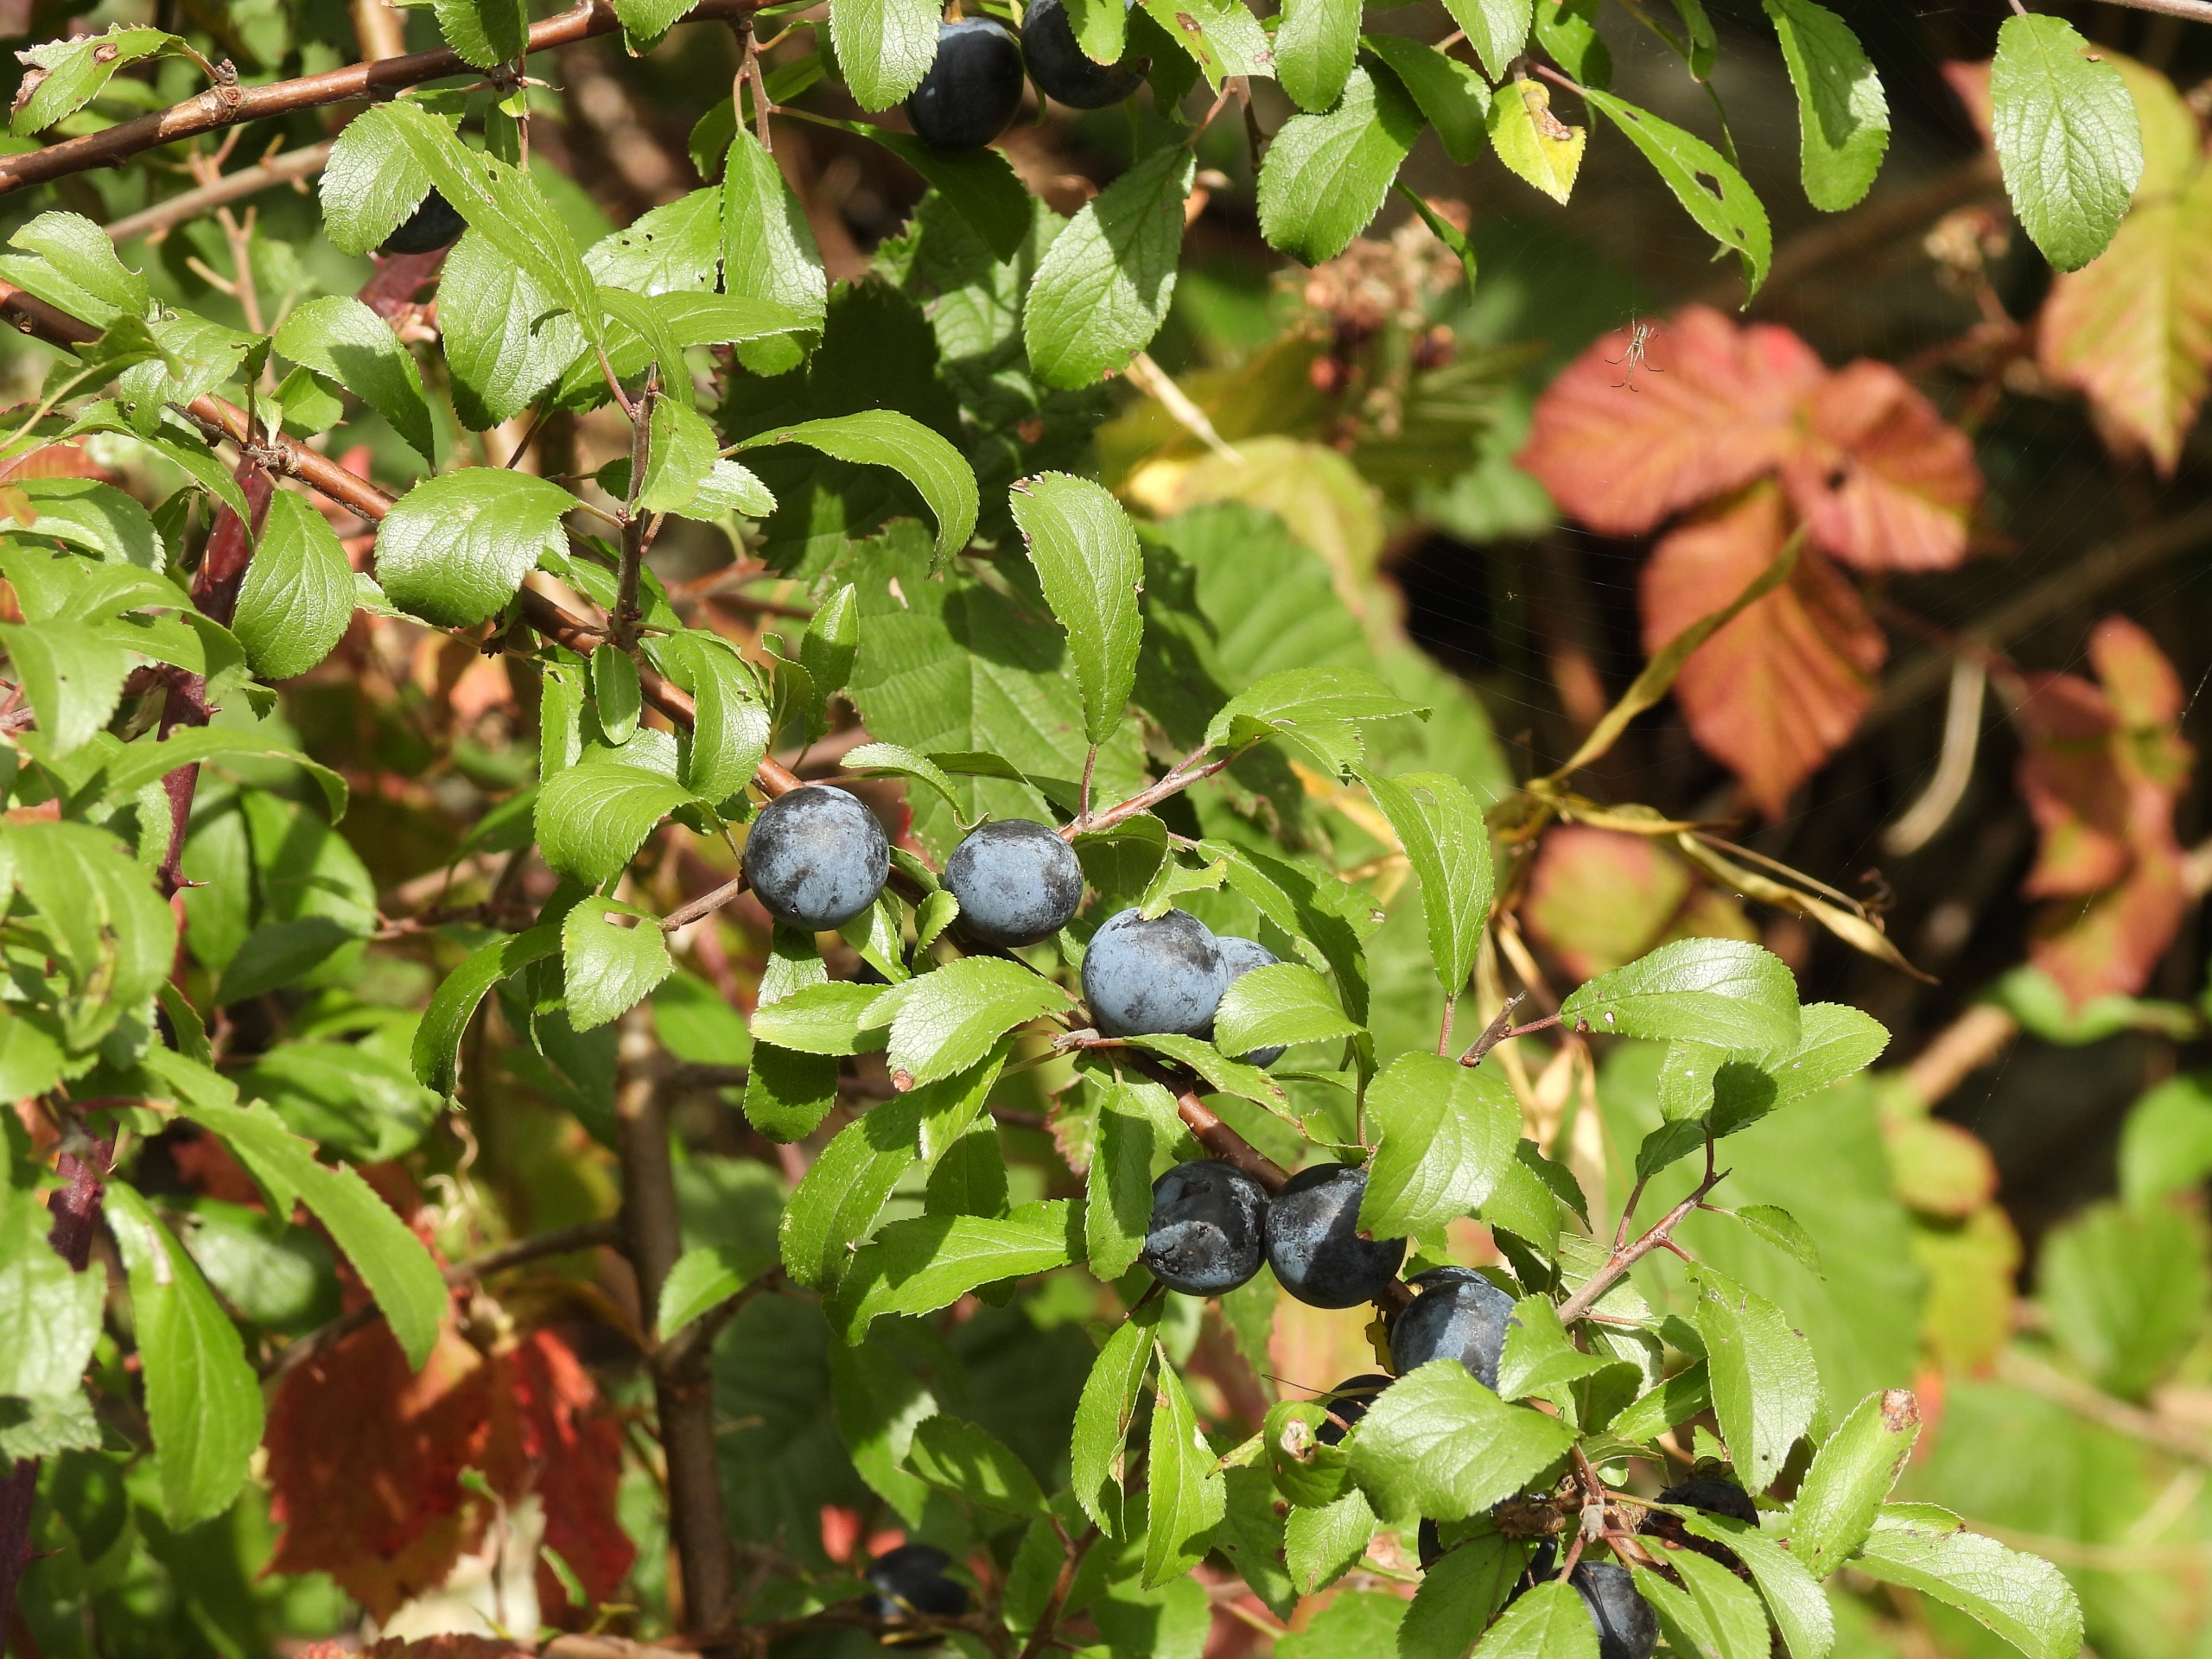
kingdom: Plantae
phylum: Tracheophyta
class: Magnoliopsida
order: Rosales
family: Rosaceae
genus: Prunus
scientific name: Prunus spinosa
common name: Slåen
